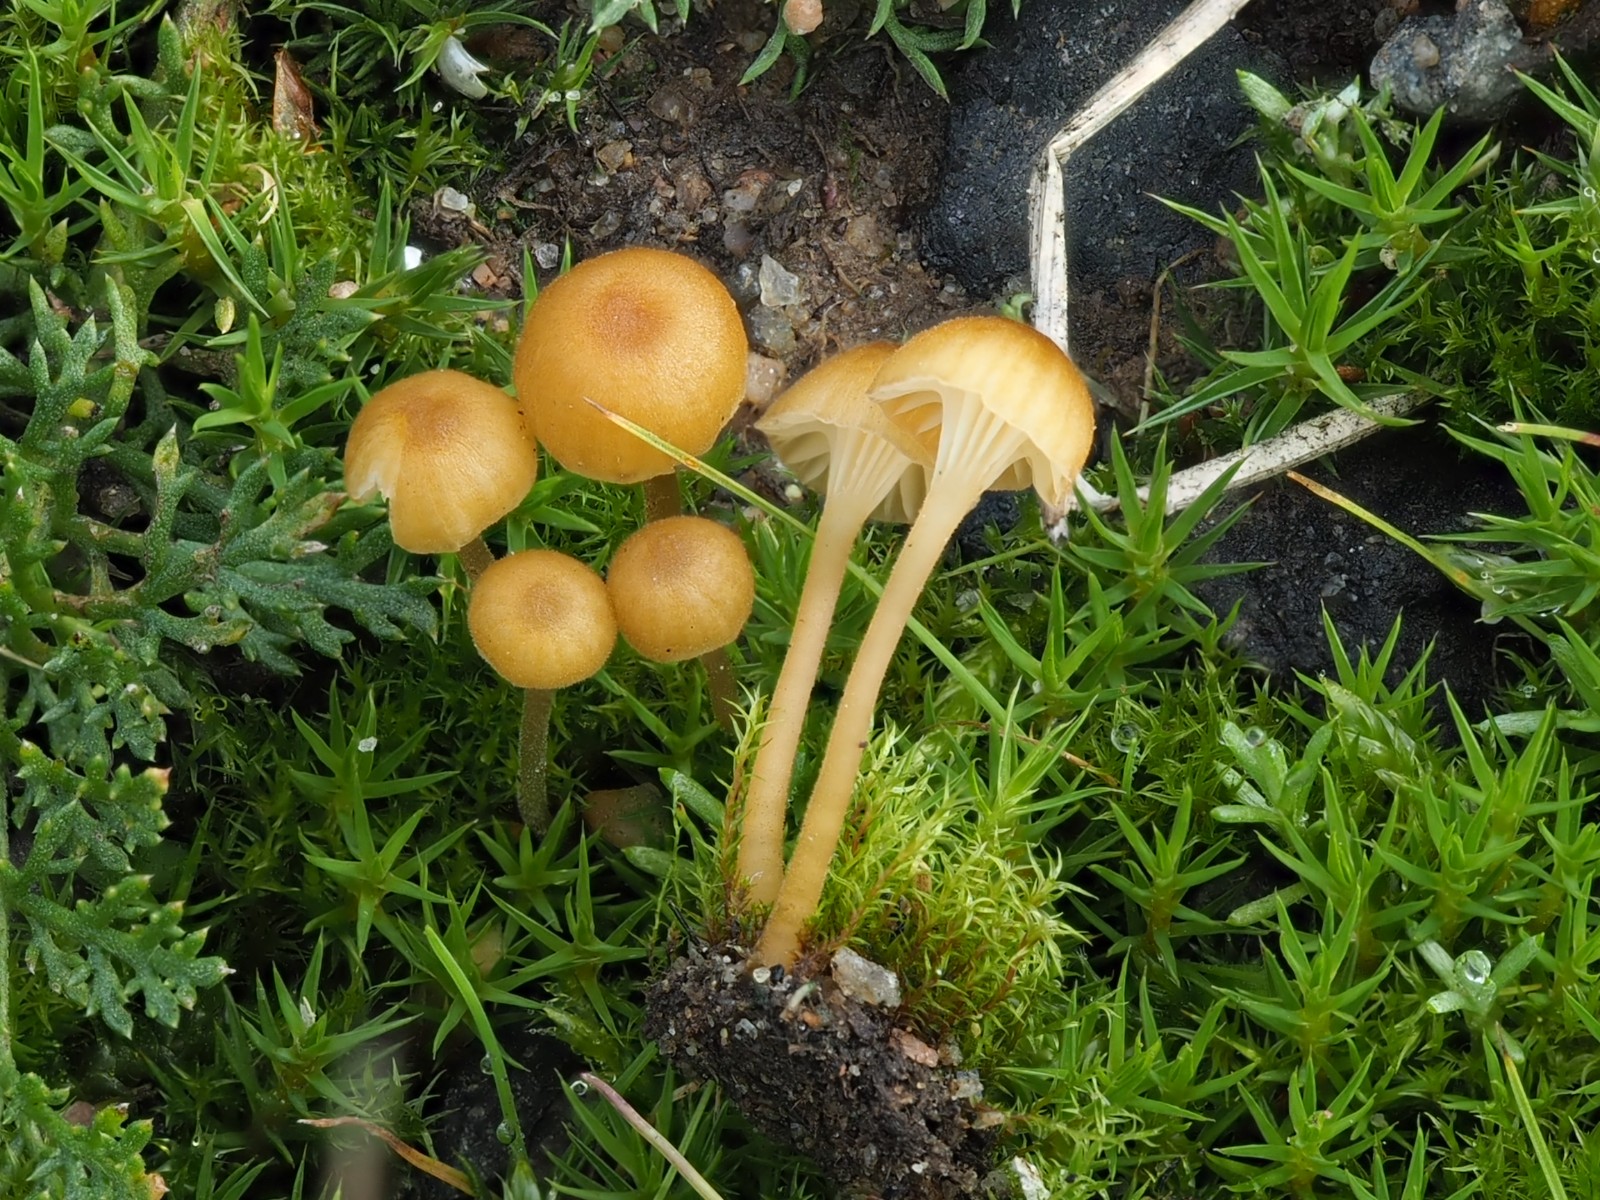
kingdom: Fungi
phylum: Basidiomycota
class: Agaricomycetes
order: Hymenochaetales
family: Rickenellaceae
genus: Rickenella
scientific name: Rickenella fibula
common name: orange mosnavlehat
